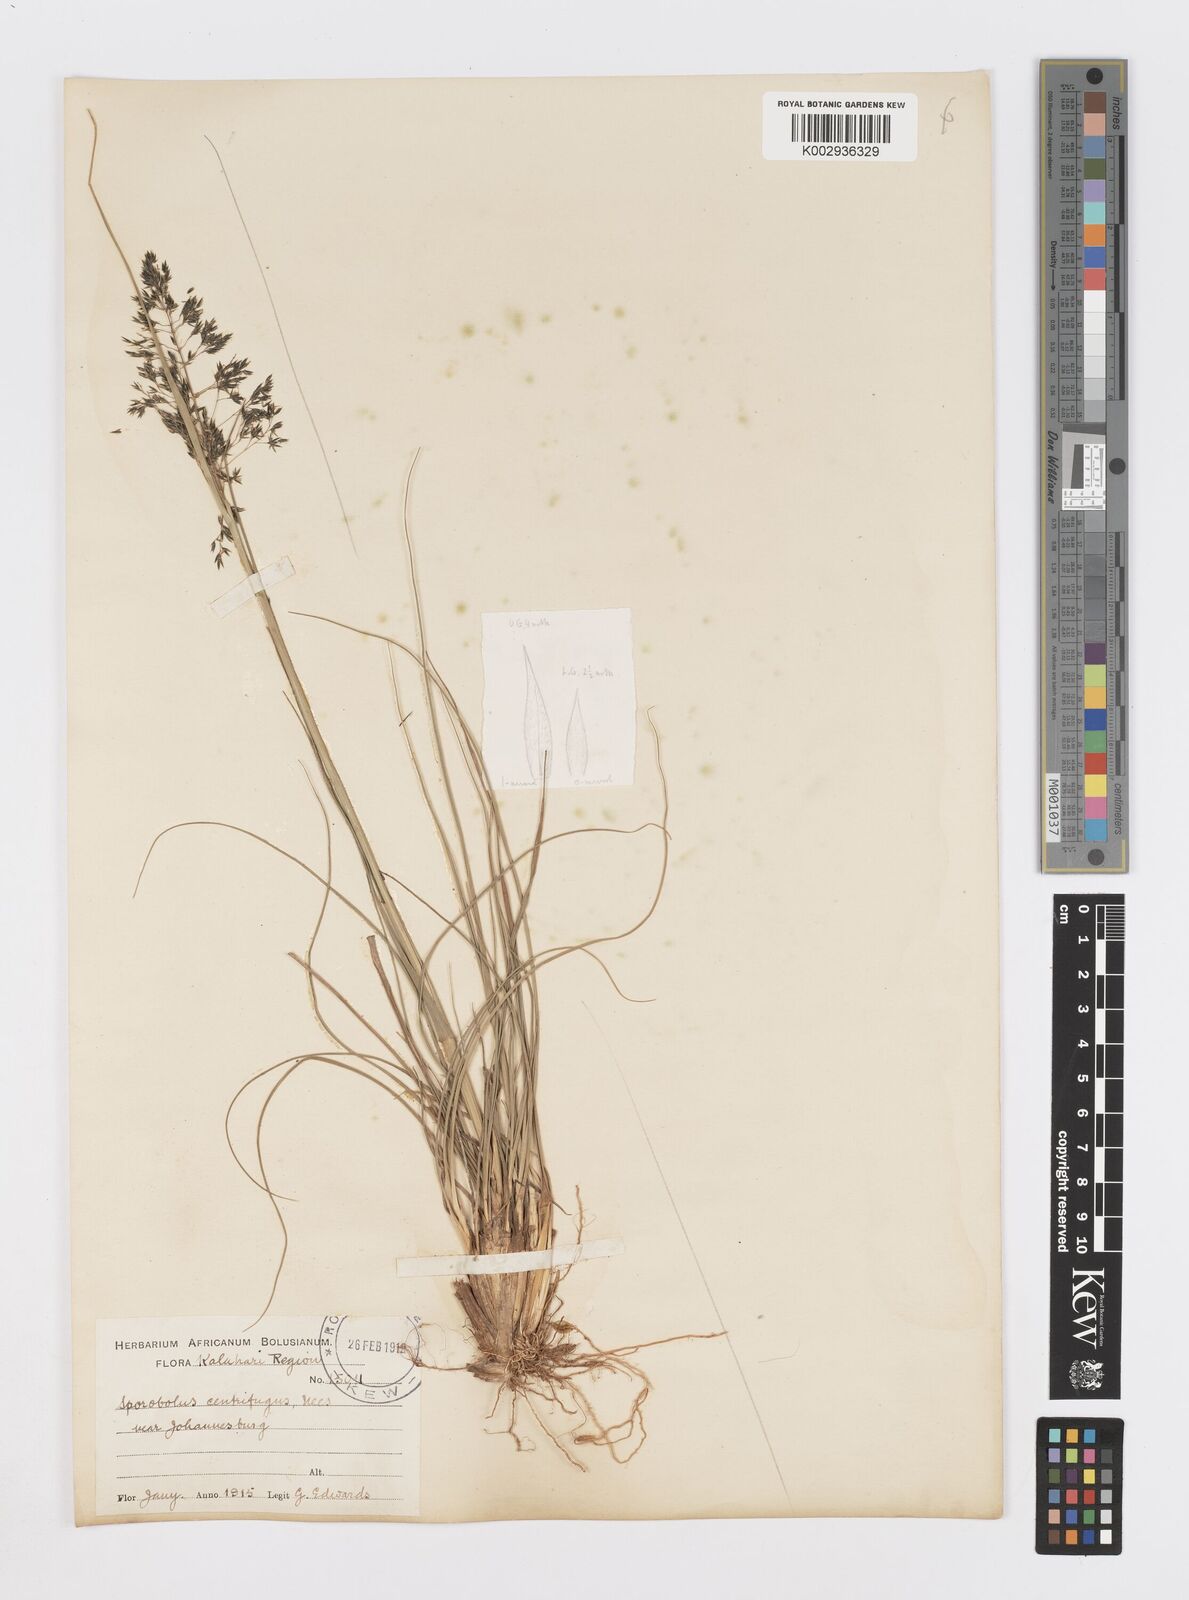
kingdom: Plantae
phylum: Tracheophyta
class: Liliopsida
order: Poales
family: Poaceae
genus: Sporobolus
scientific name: Sporobolus centrifugus
